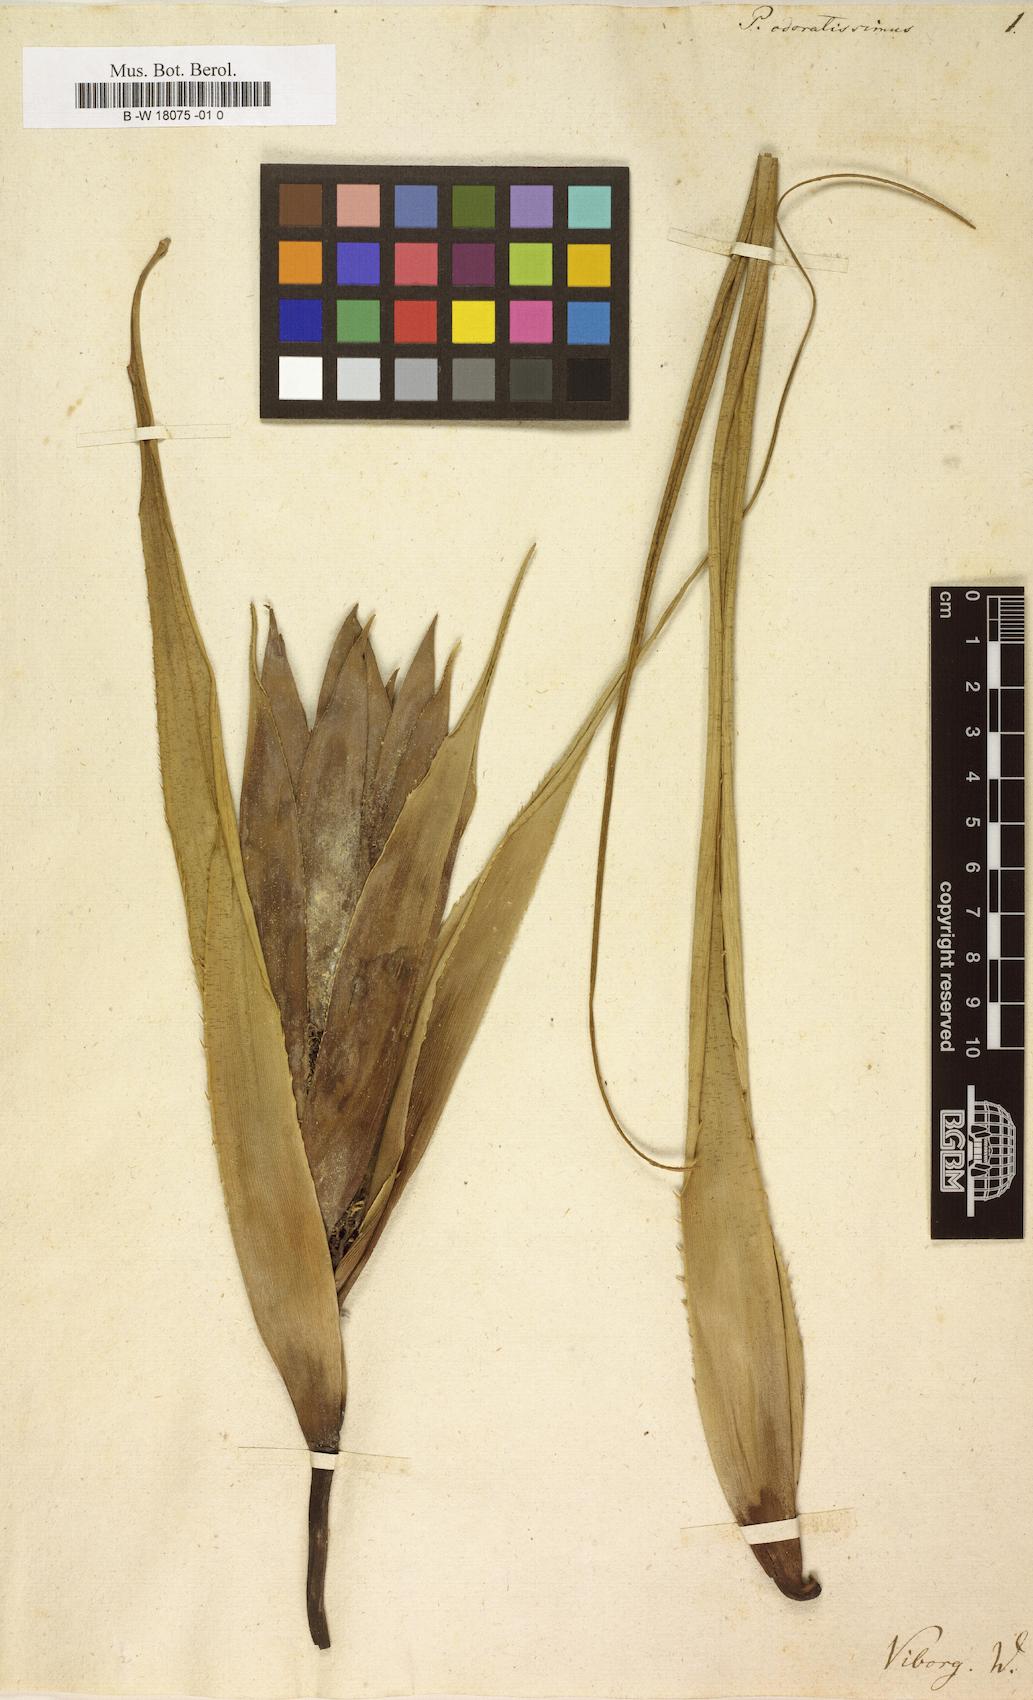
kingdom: Plantae
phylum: Tracheophyta
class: Liliopsida
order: Pandanales
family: Pandanaceae
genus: Pandanus
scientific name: Pandanus utilis
